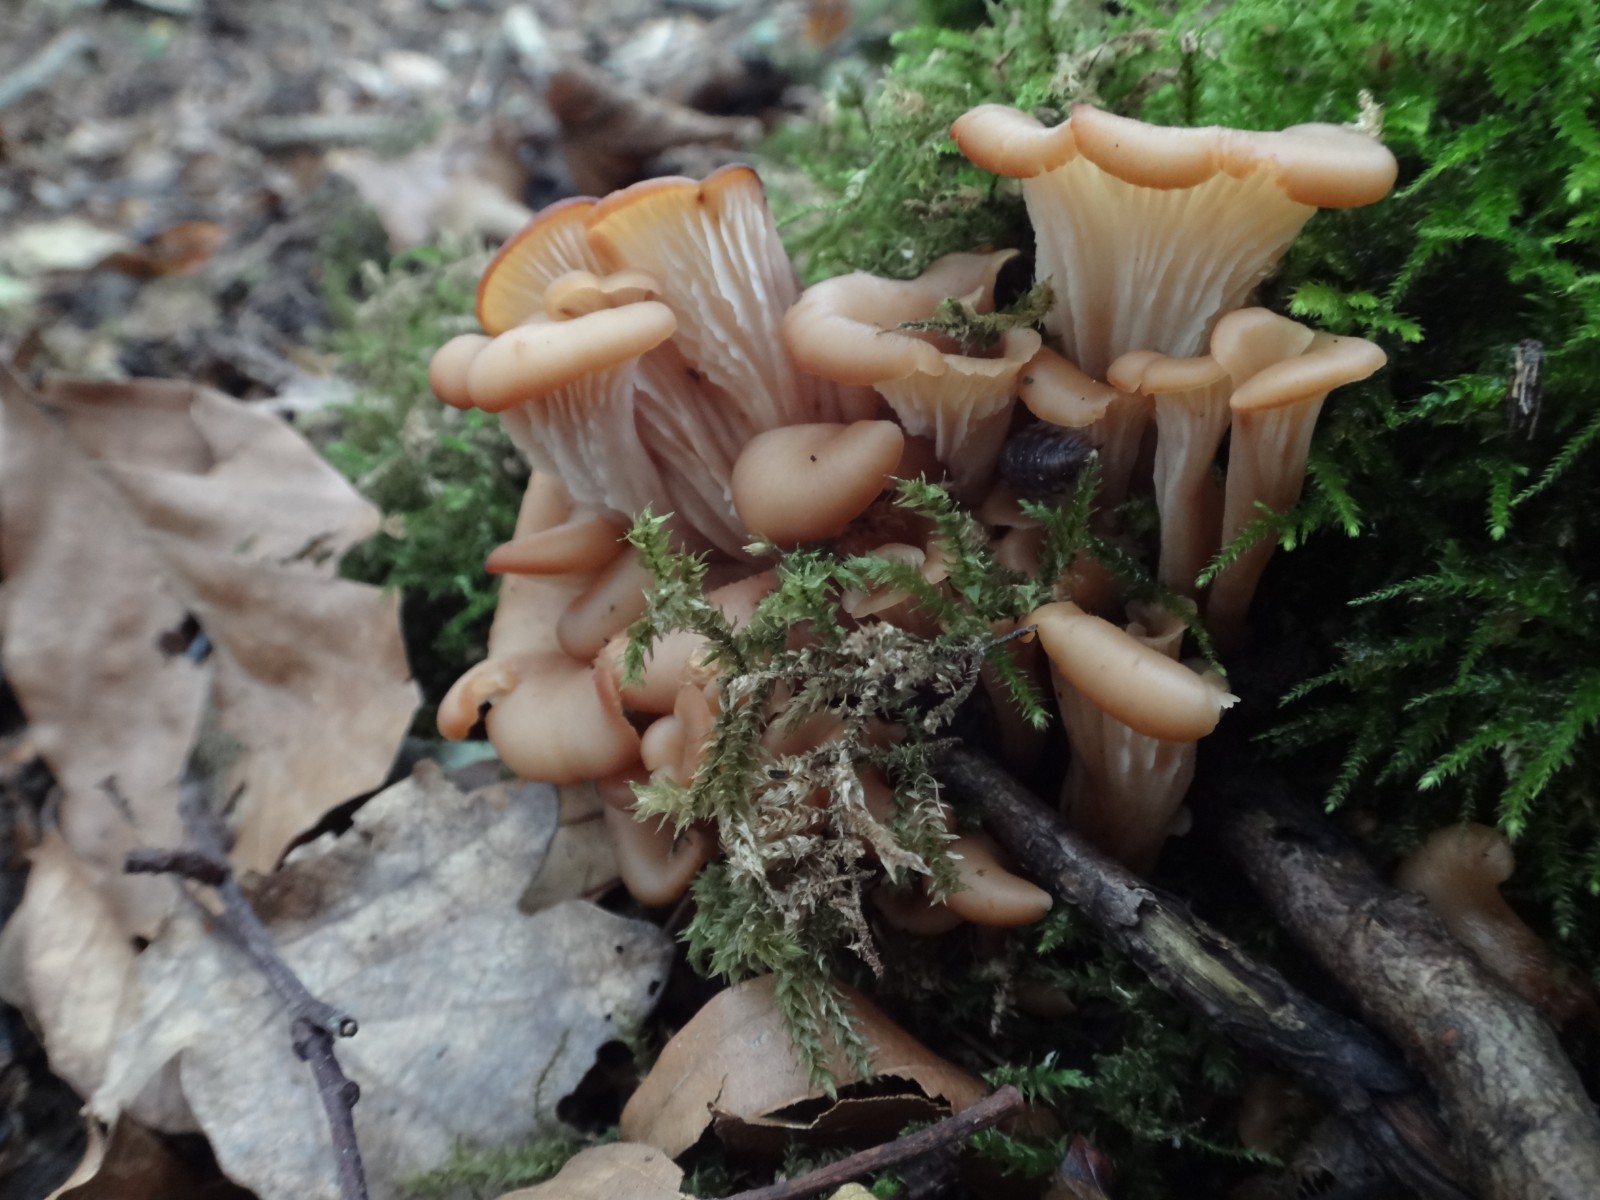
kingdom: Fungi
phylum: Basidiomycota
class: Agaricomycetes
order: Russulales
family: Auriscalpiaceae
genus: Lentinellus
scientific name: Lentinellus cochleatus
